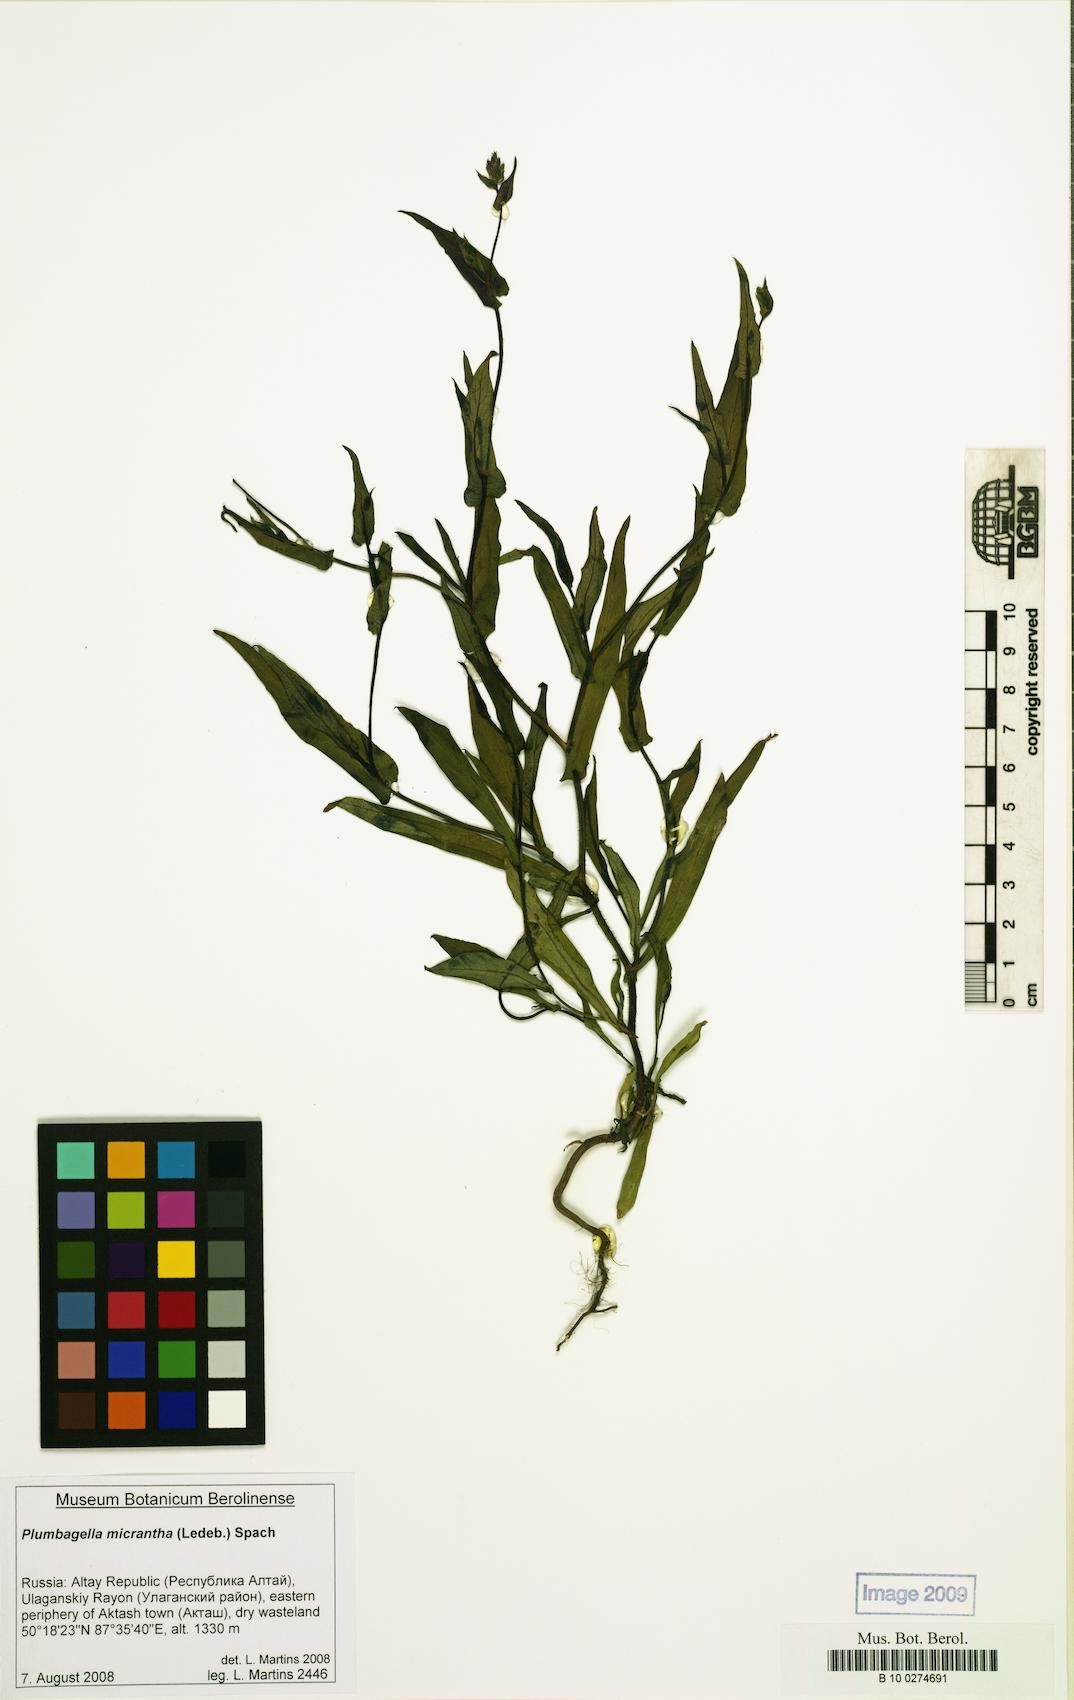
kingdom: Plantae
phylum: Tracheophyta
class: Magnoliopsida
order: Caryophyllales
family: Plumbaginaceae
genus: Plumbagella
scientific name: Plumbagella micrantha
